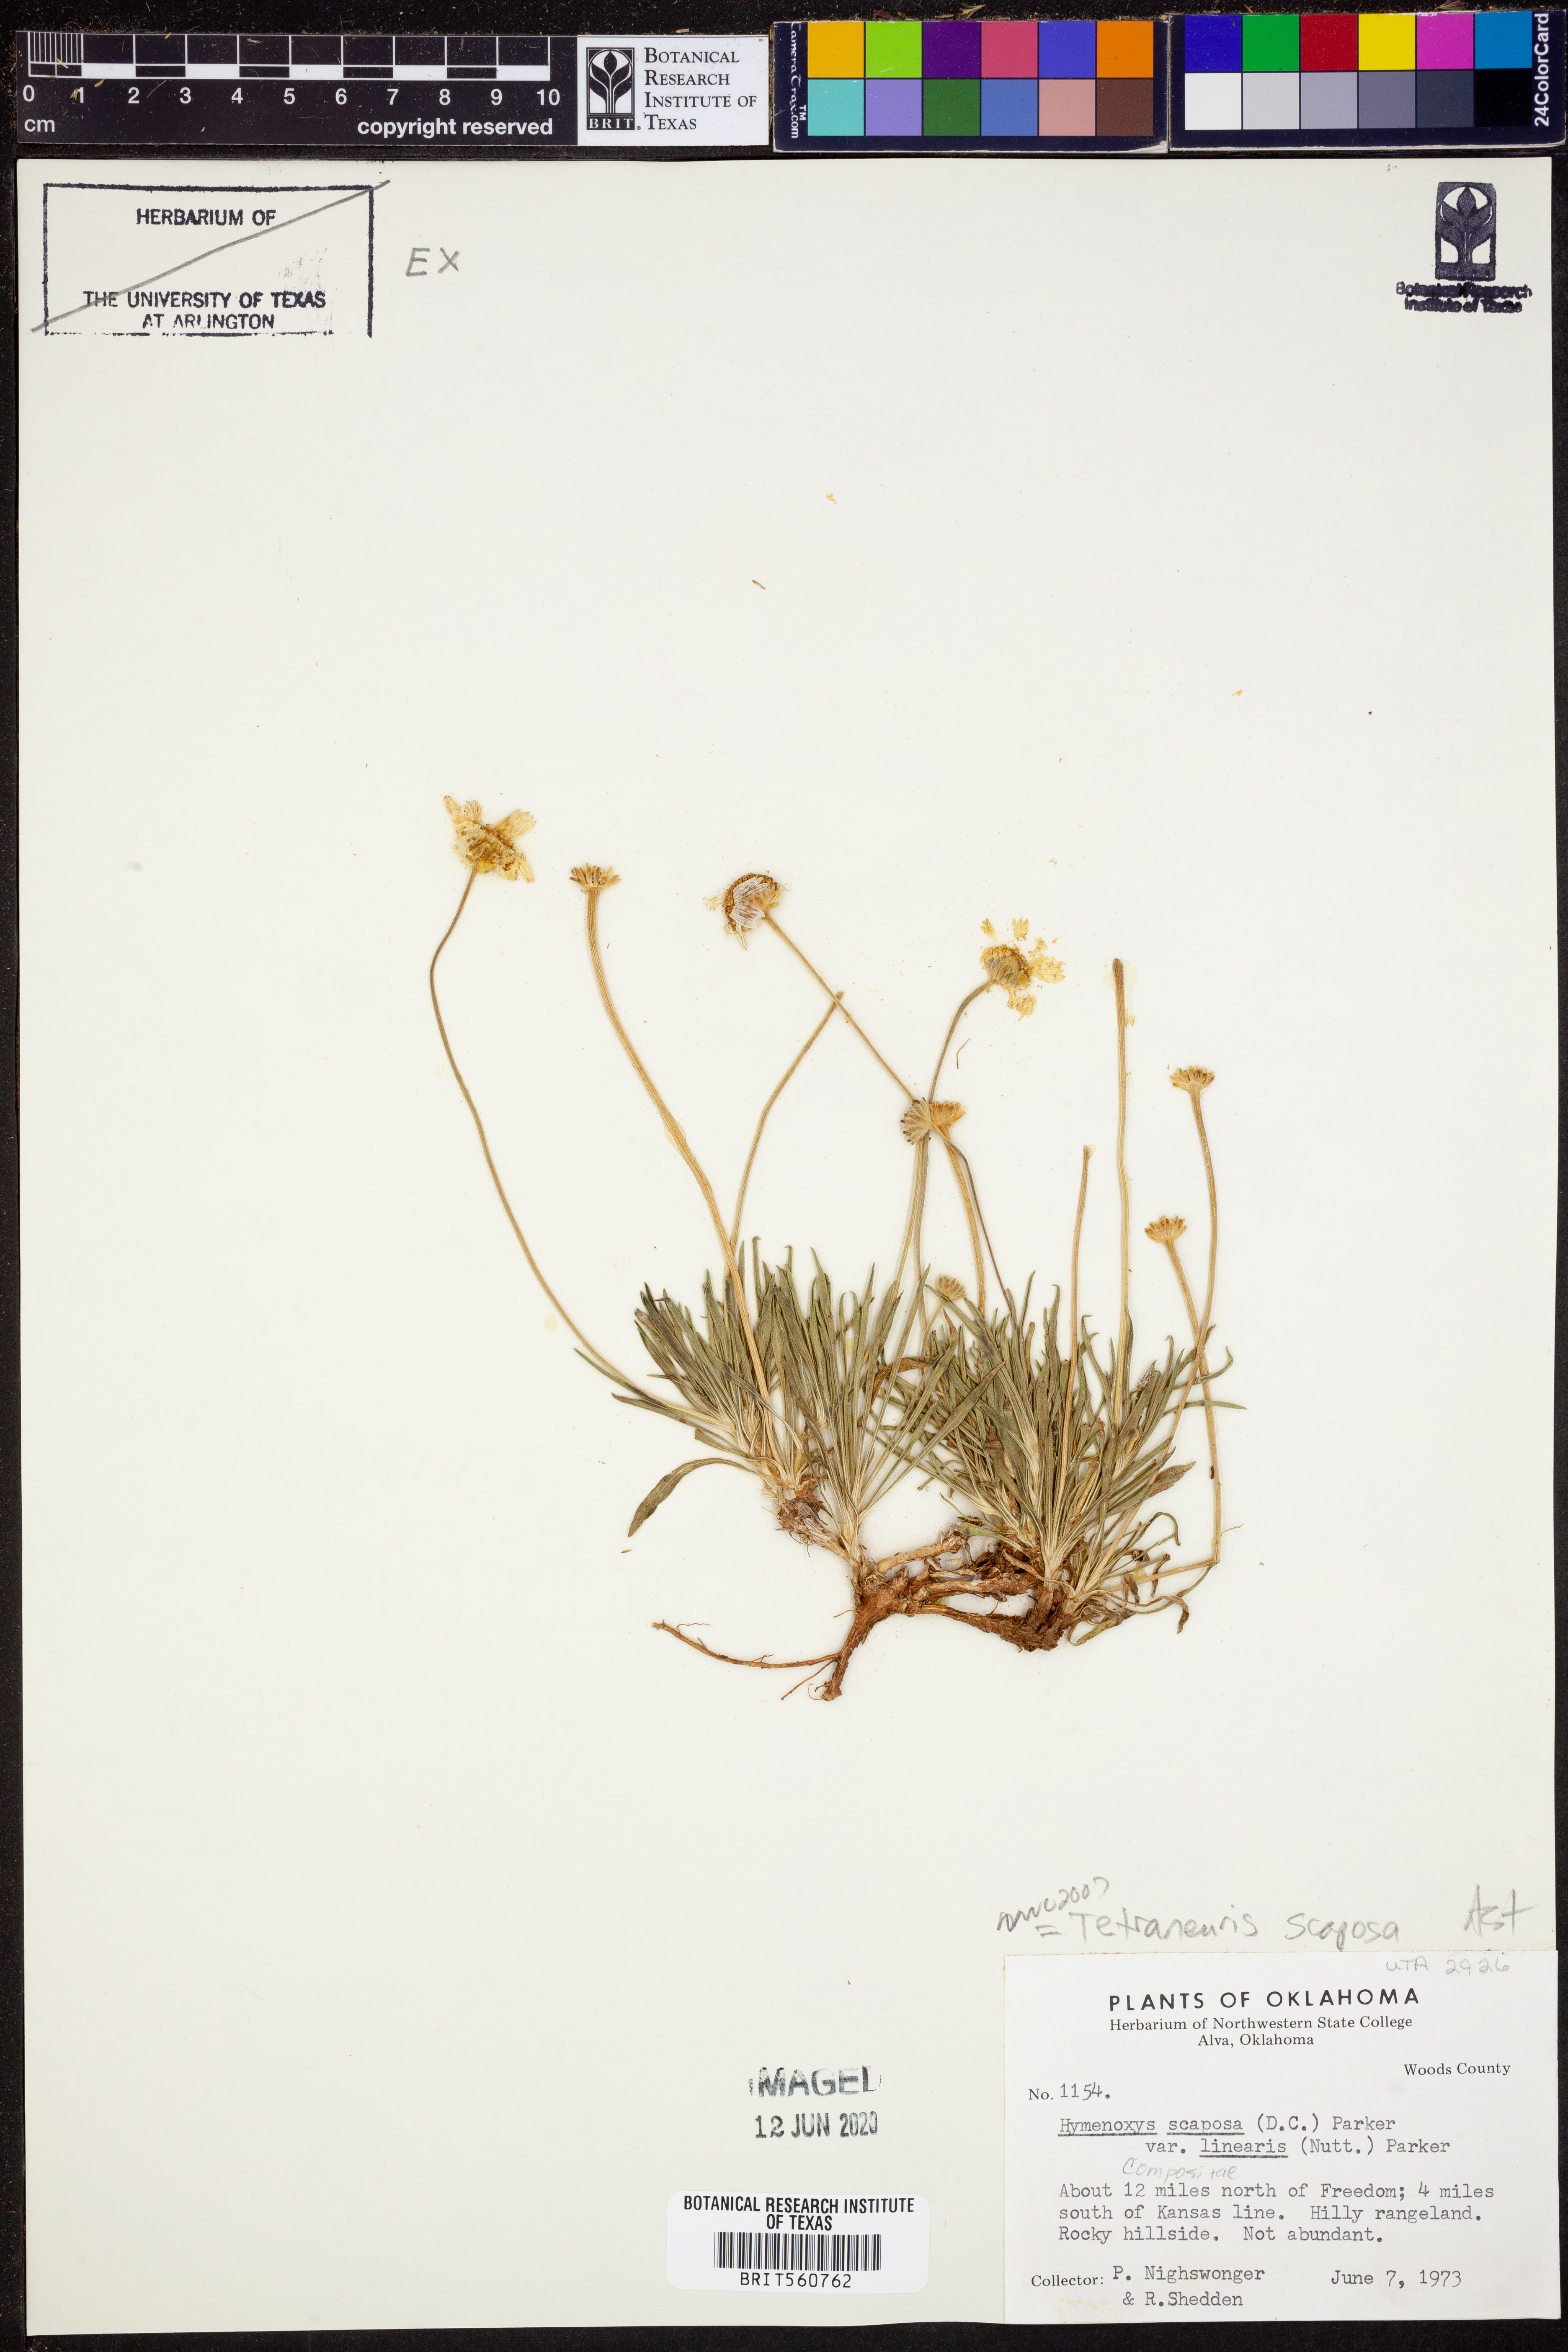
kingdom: Plantae
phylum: Tracheophyta
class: Magnoliopsida
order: Asterales
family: Asteraceae
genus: Tetraneuris
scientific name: Tetraneuris scaposa
